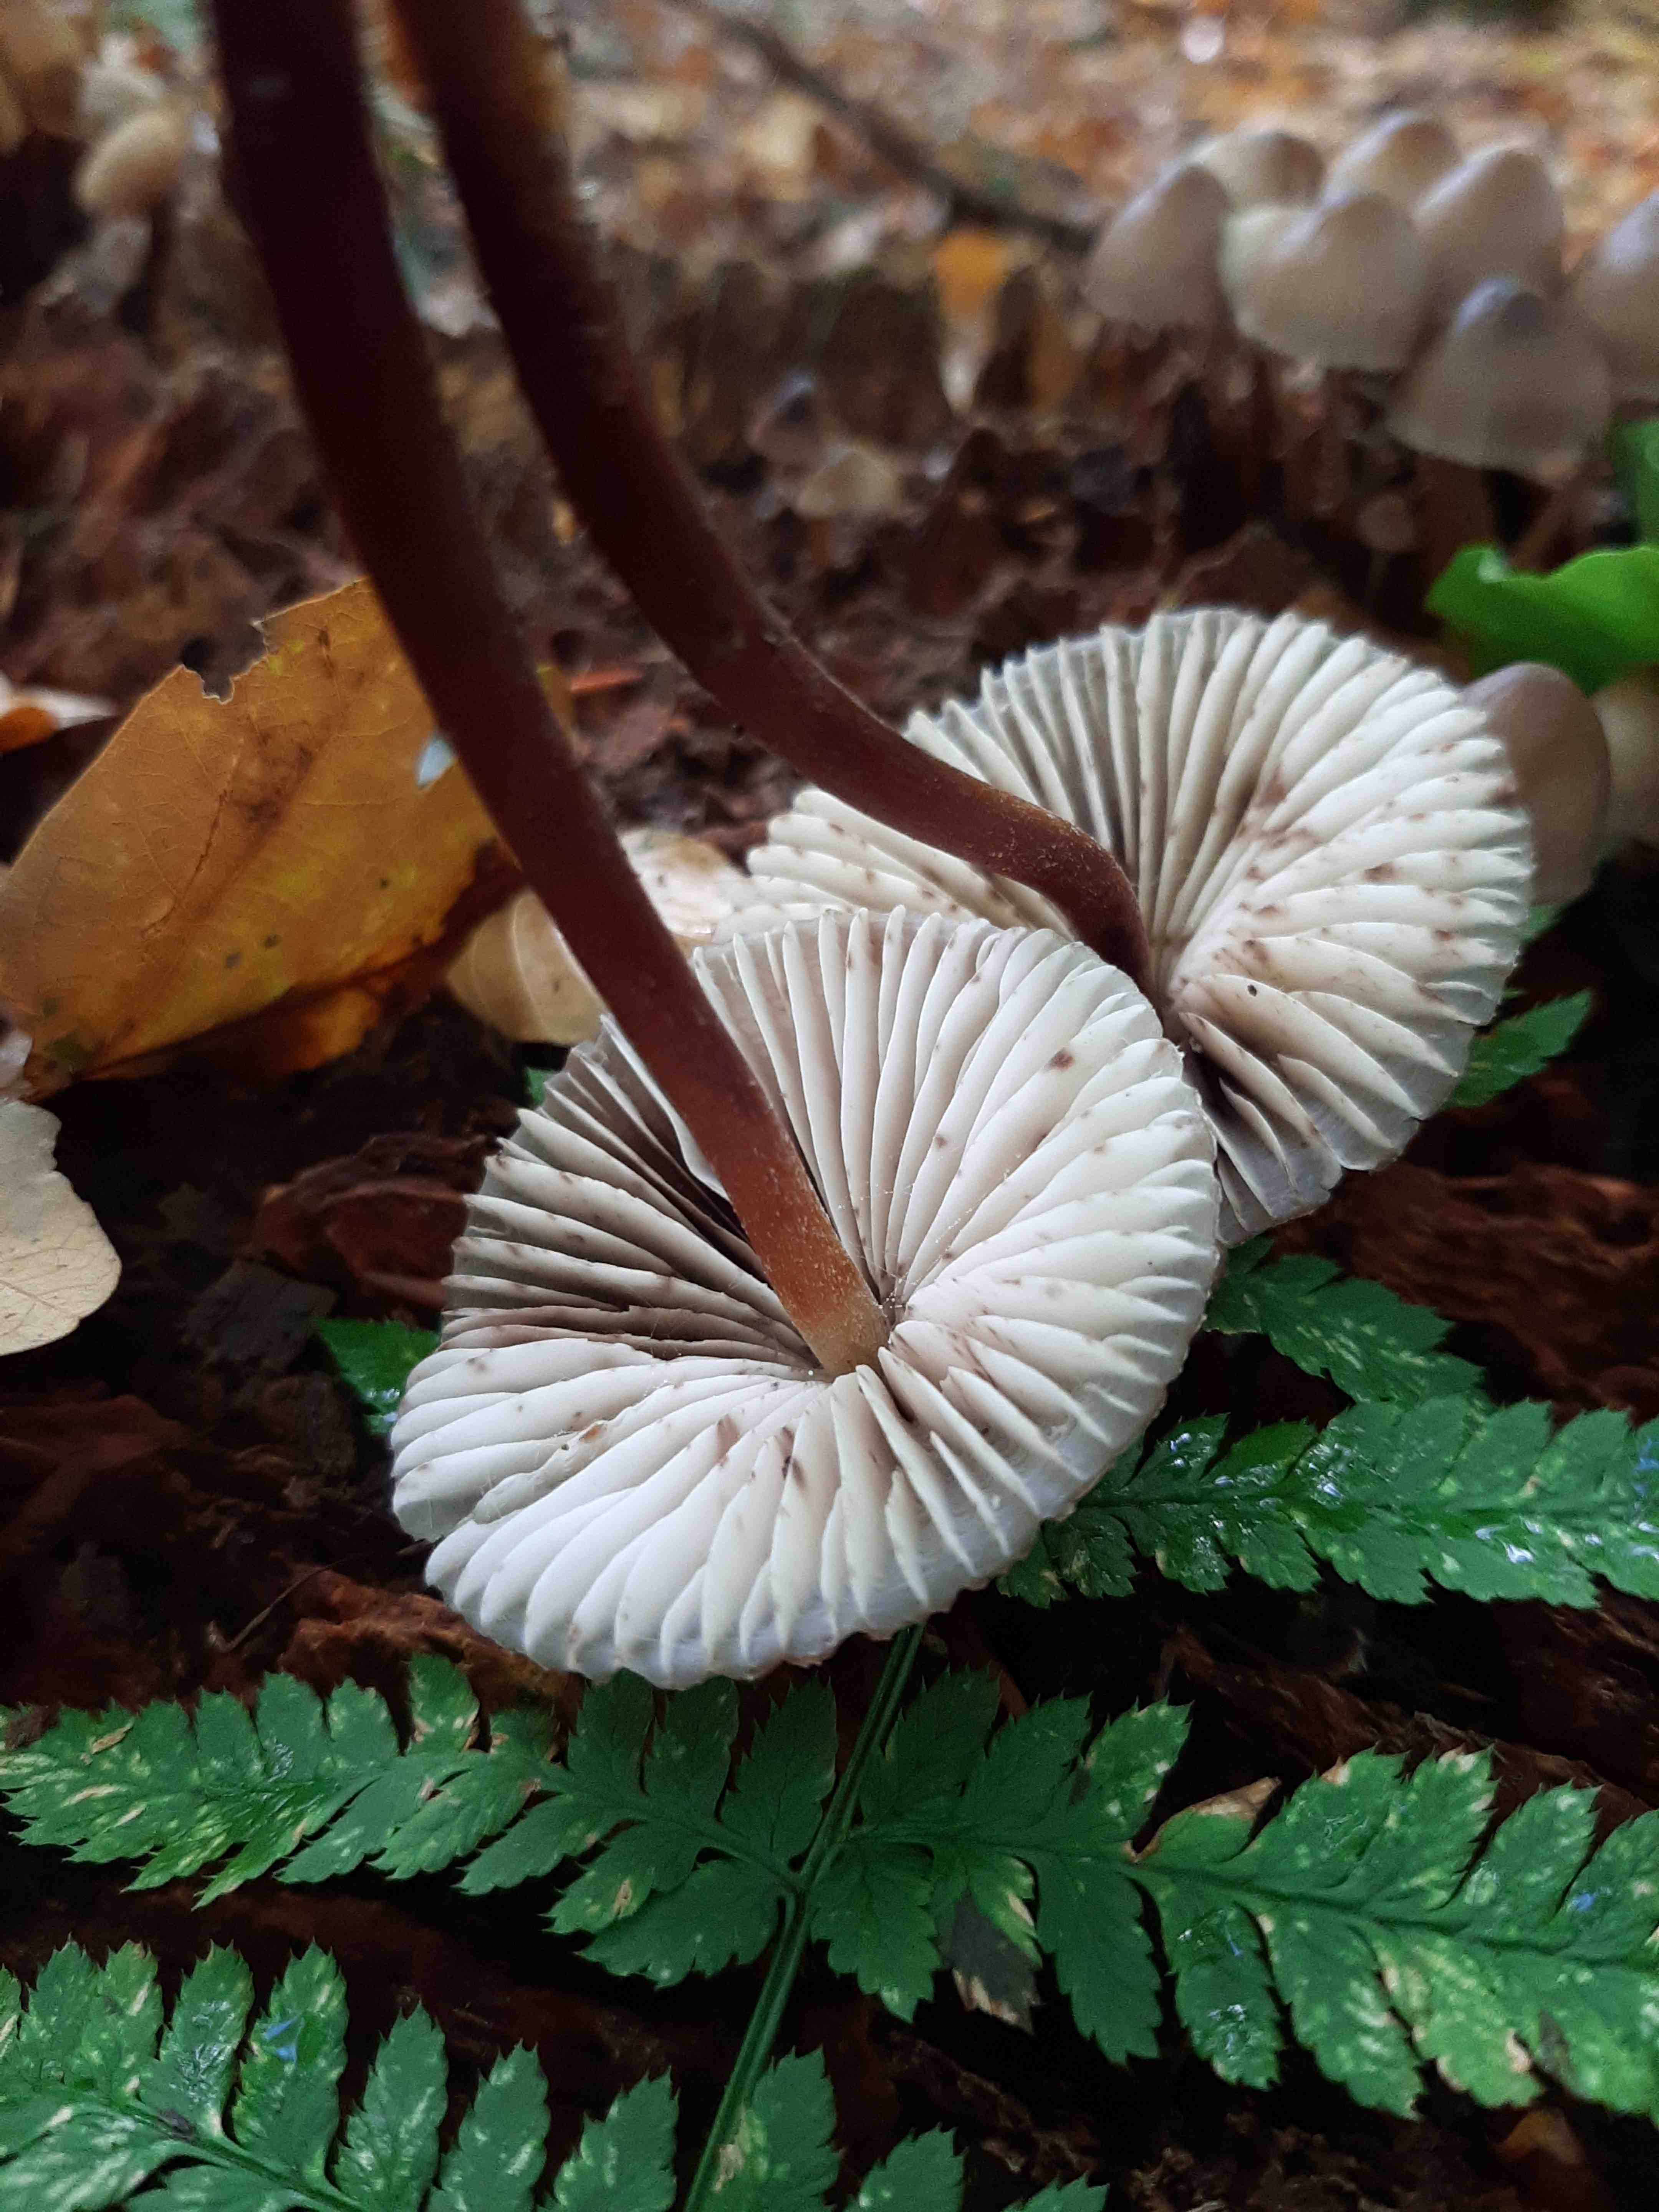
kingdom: Fungi
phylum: Basidiomycota
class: Agaricomycetes
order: Agaricales
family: Mycenaceae
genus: Mycena
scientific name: Mycena inclinata
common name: nikkende huesvamp
